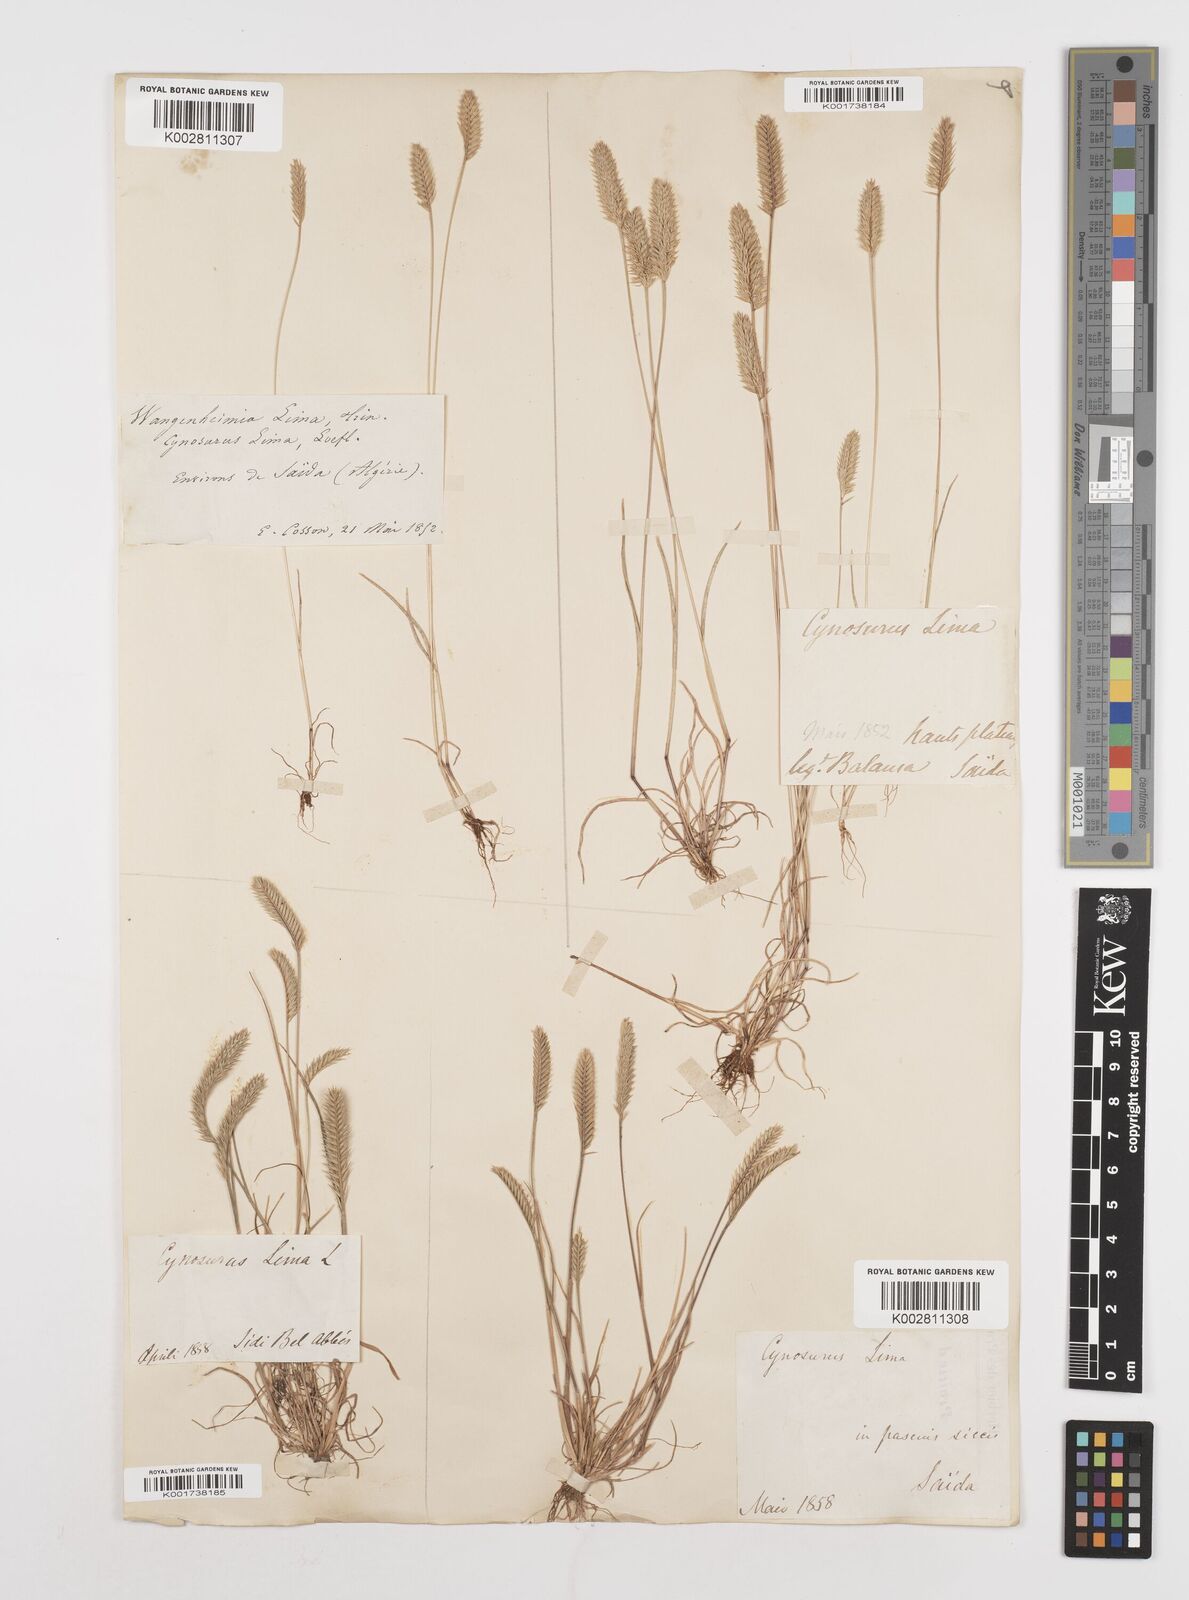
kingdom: Plantae
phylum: Tracheophyta
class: Liliopsida
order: Poales
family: Poaceae
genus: Wangenheimia
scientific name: Wangenheimia lima
